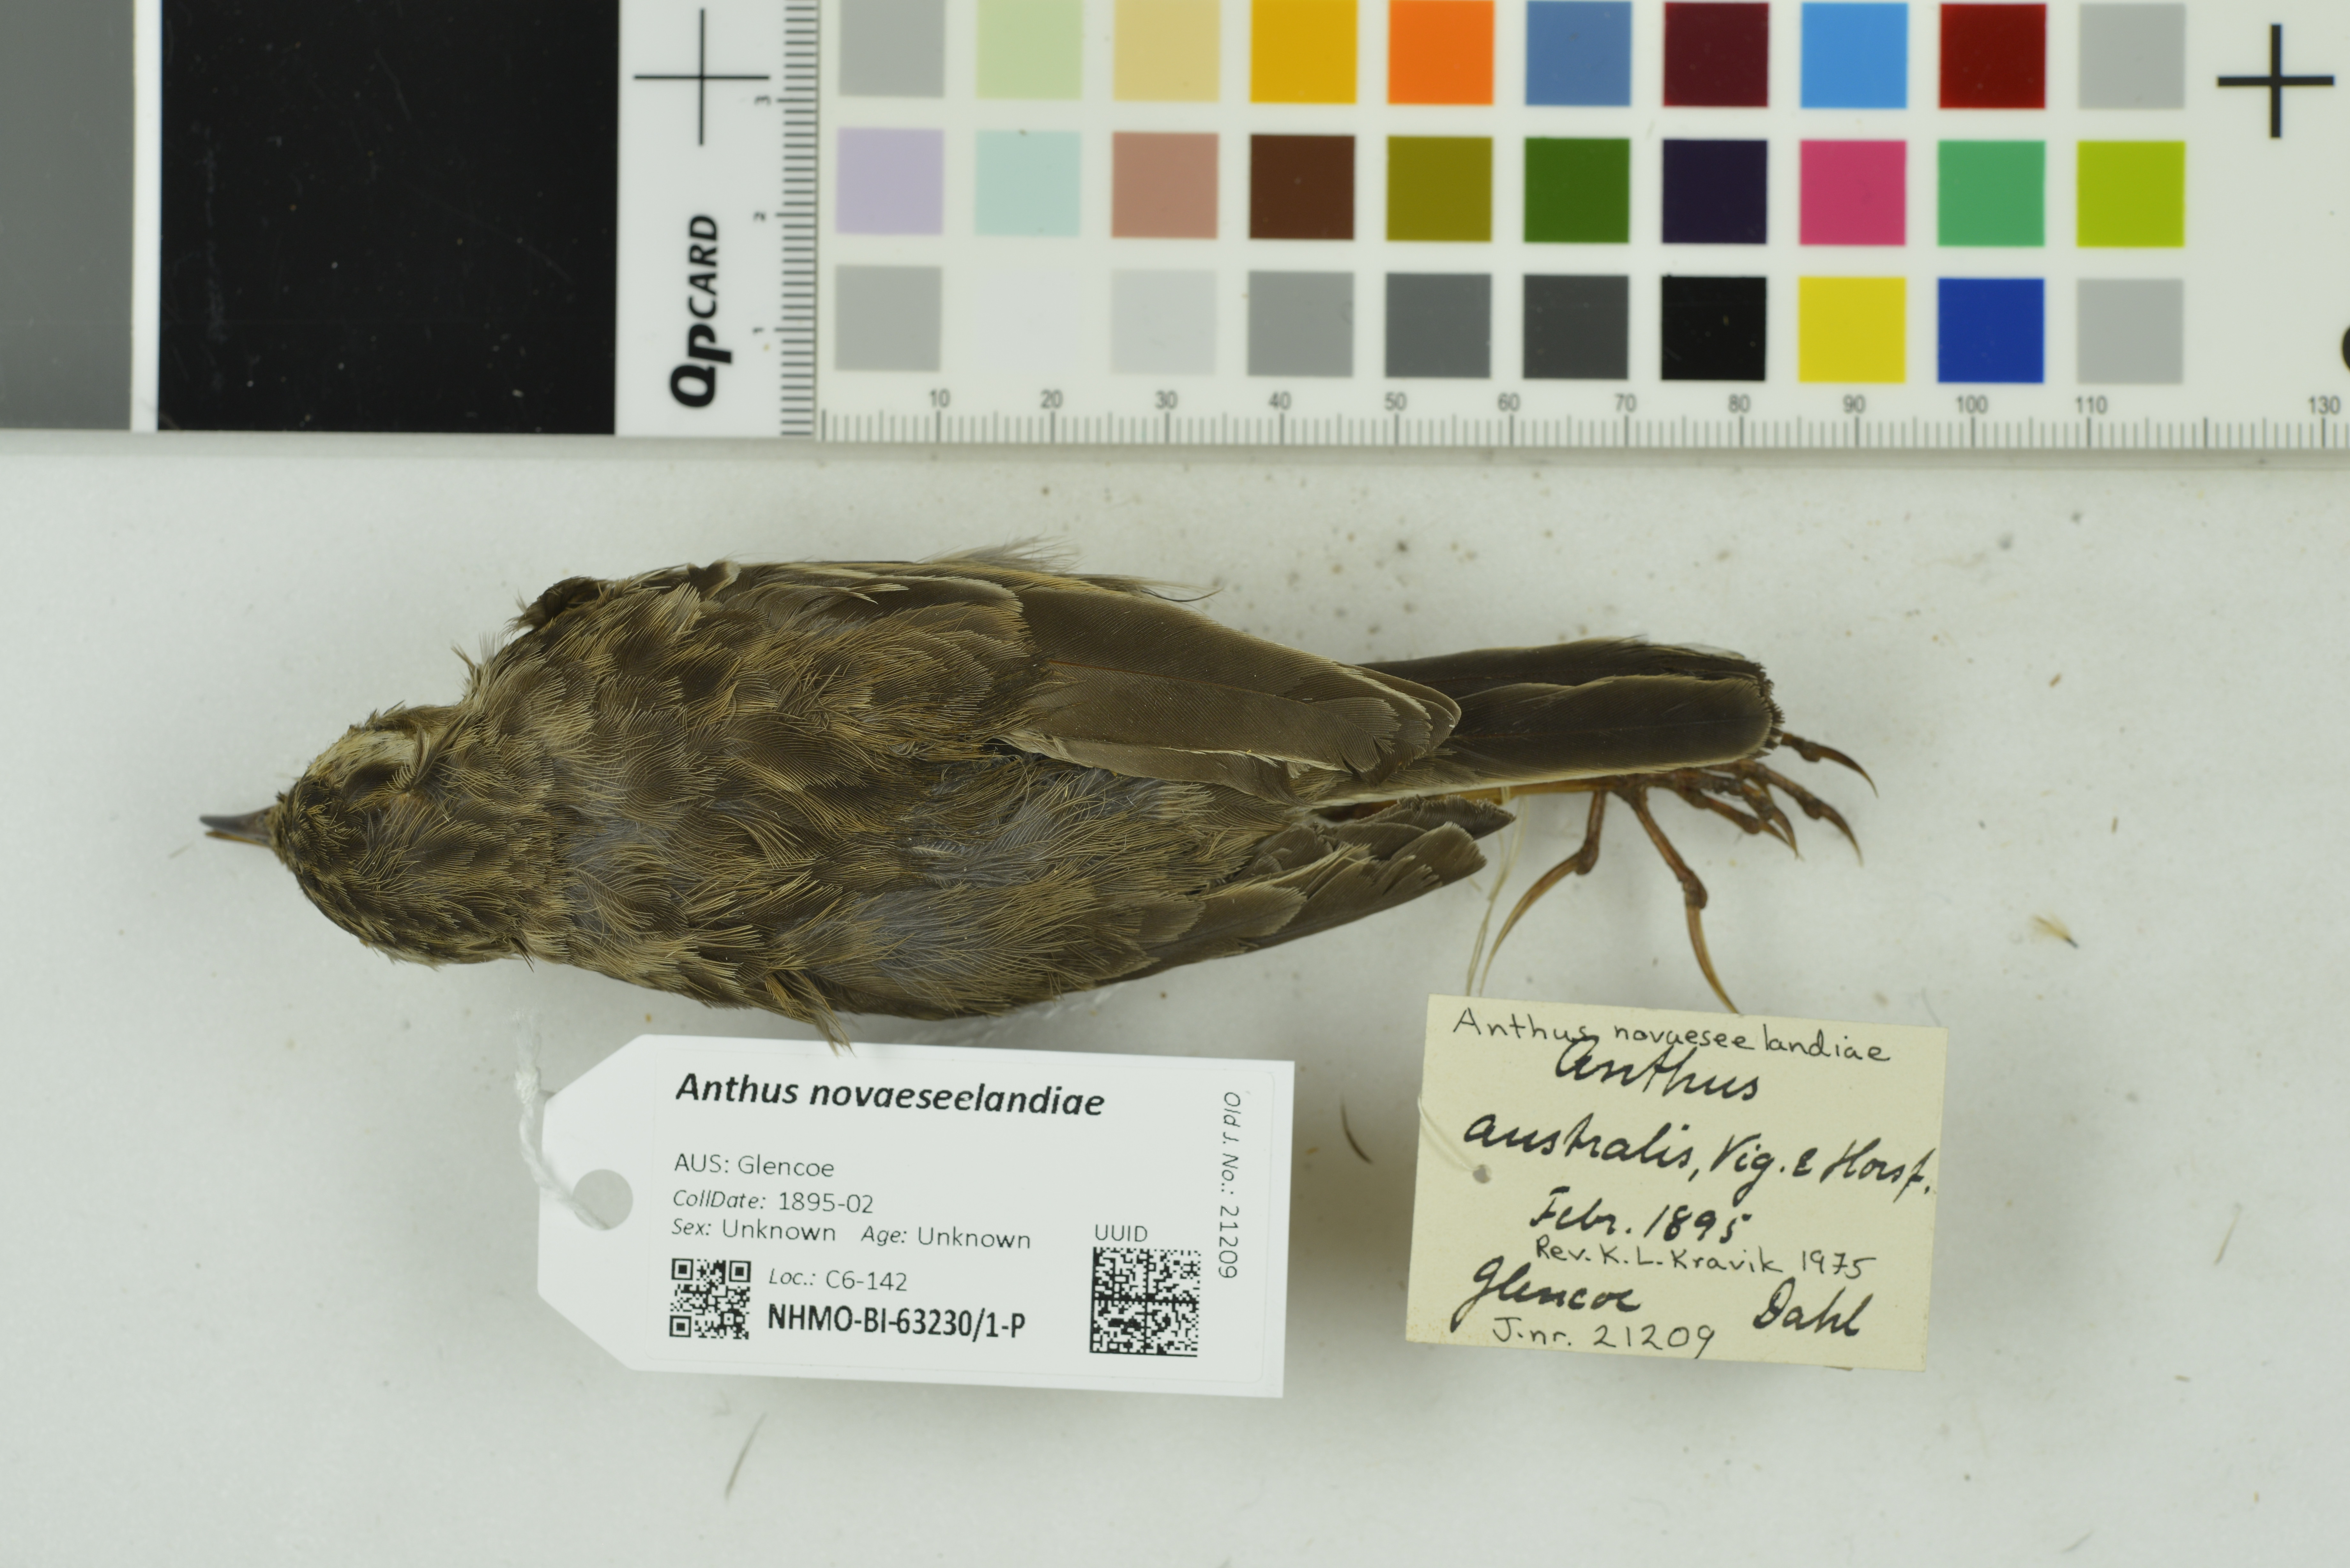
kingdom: Animalia
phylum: Chordata
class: Aves
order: Passeriformes
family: Motacillidae
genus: Anthus
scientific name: Anthus novaeseelandiae
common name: New zealand pipit
